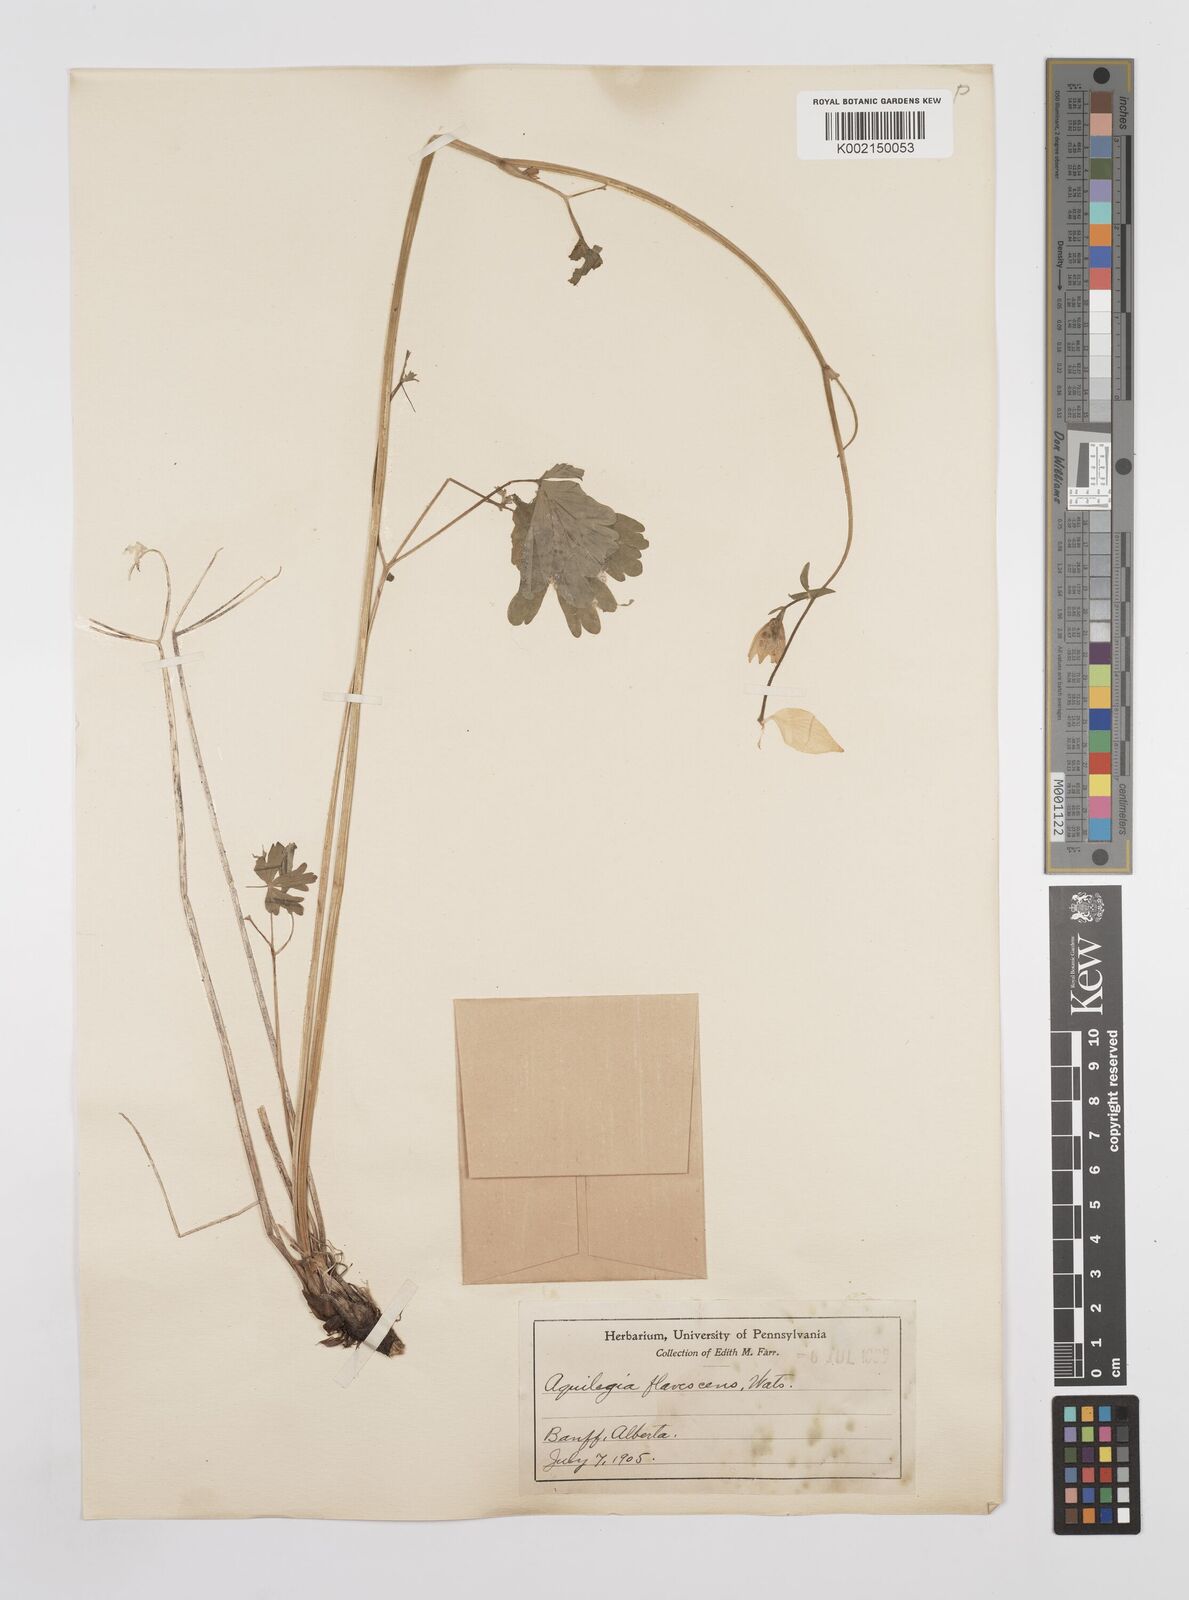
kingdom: Plantae
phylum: Tracheophyta
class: Magnoliopsida
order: Ranunculales
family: Ranunculaceae
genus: Aquilegia
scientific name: Aquilegia flavescens
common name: Yellow columbine
